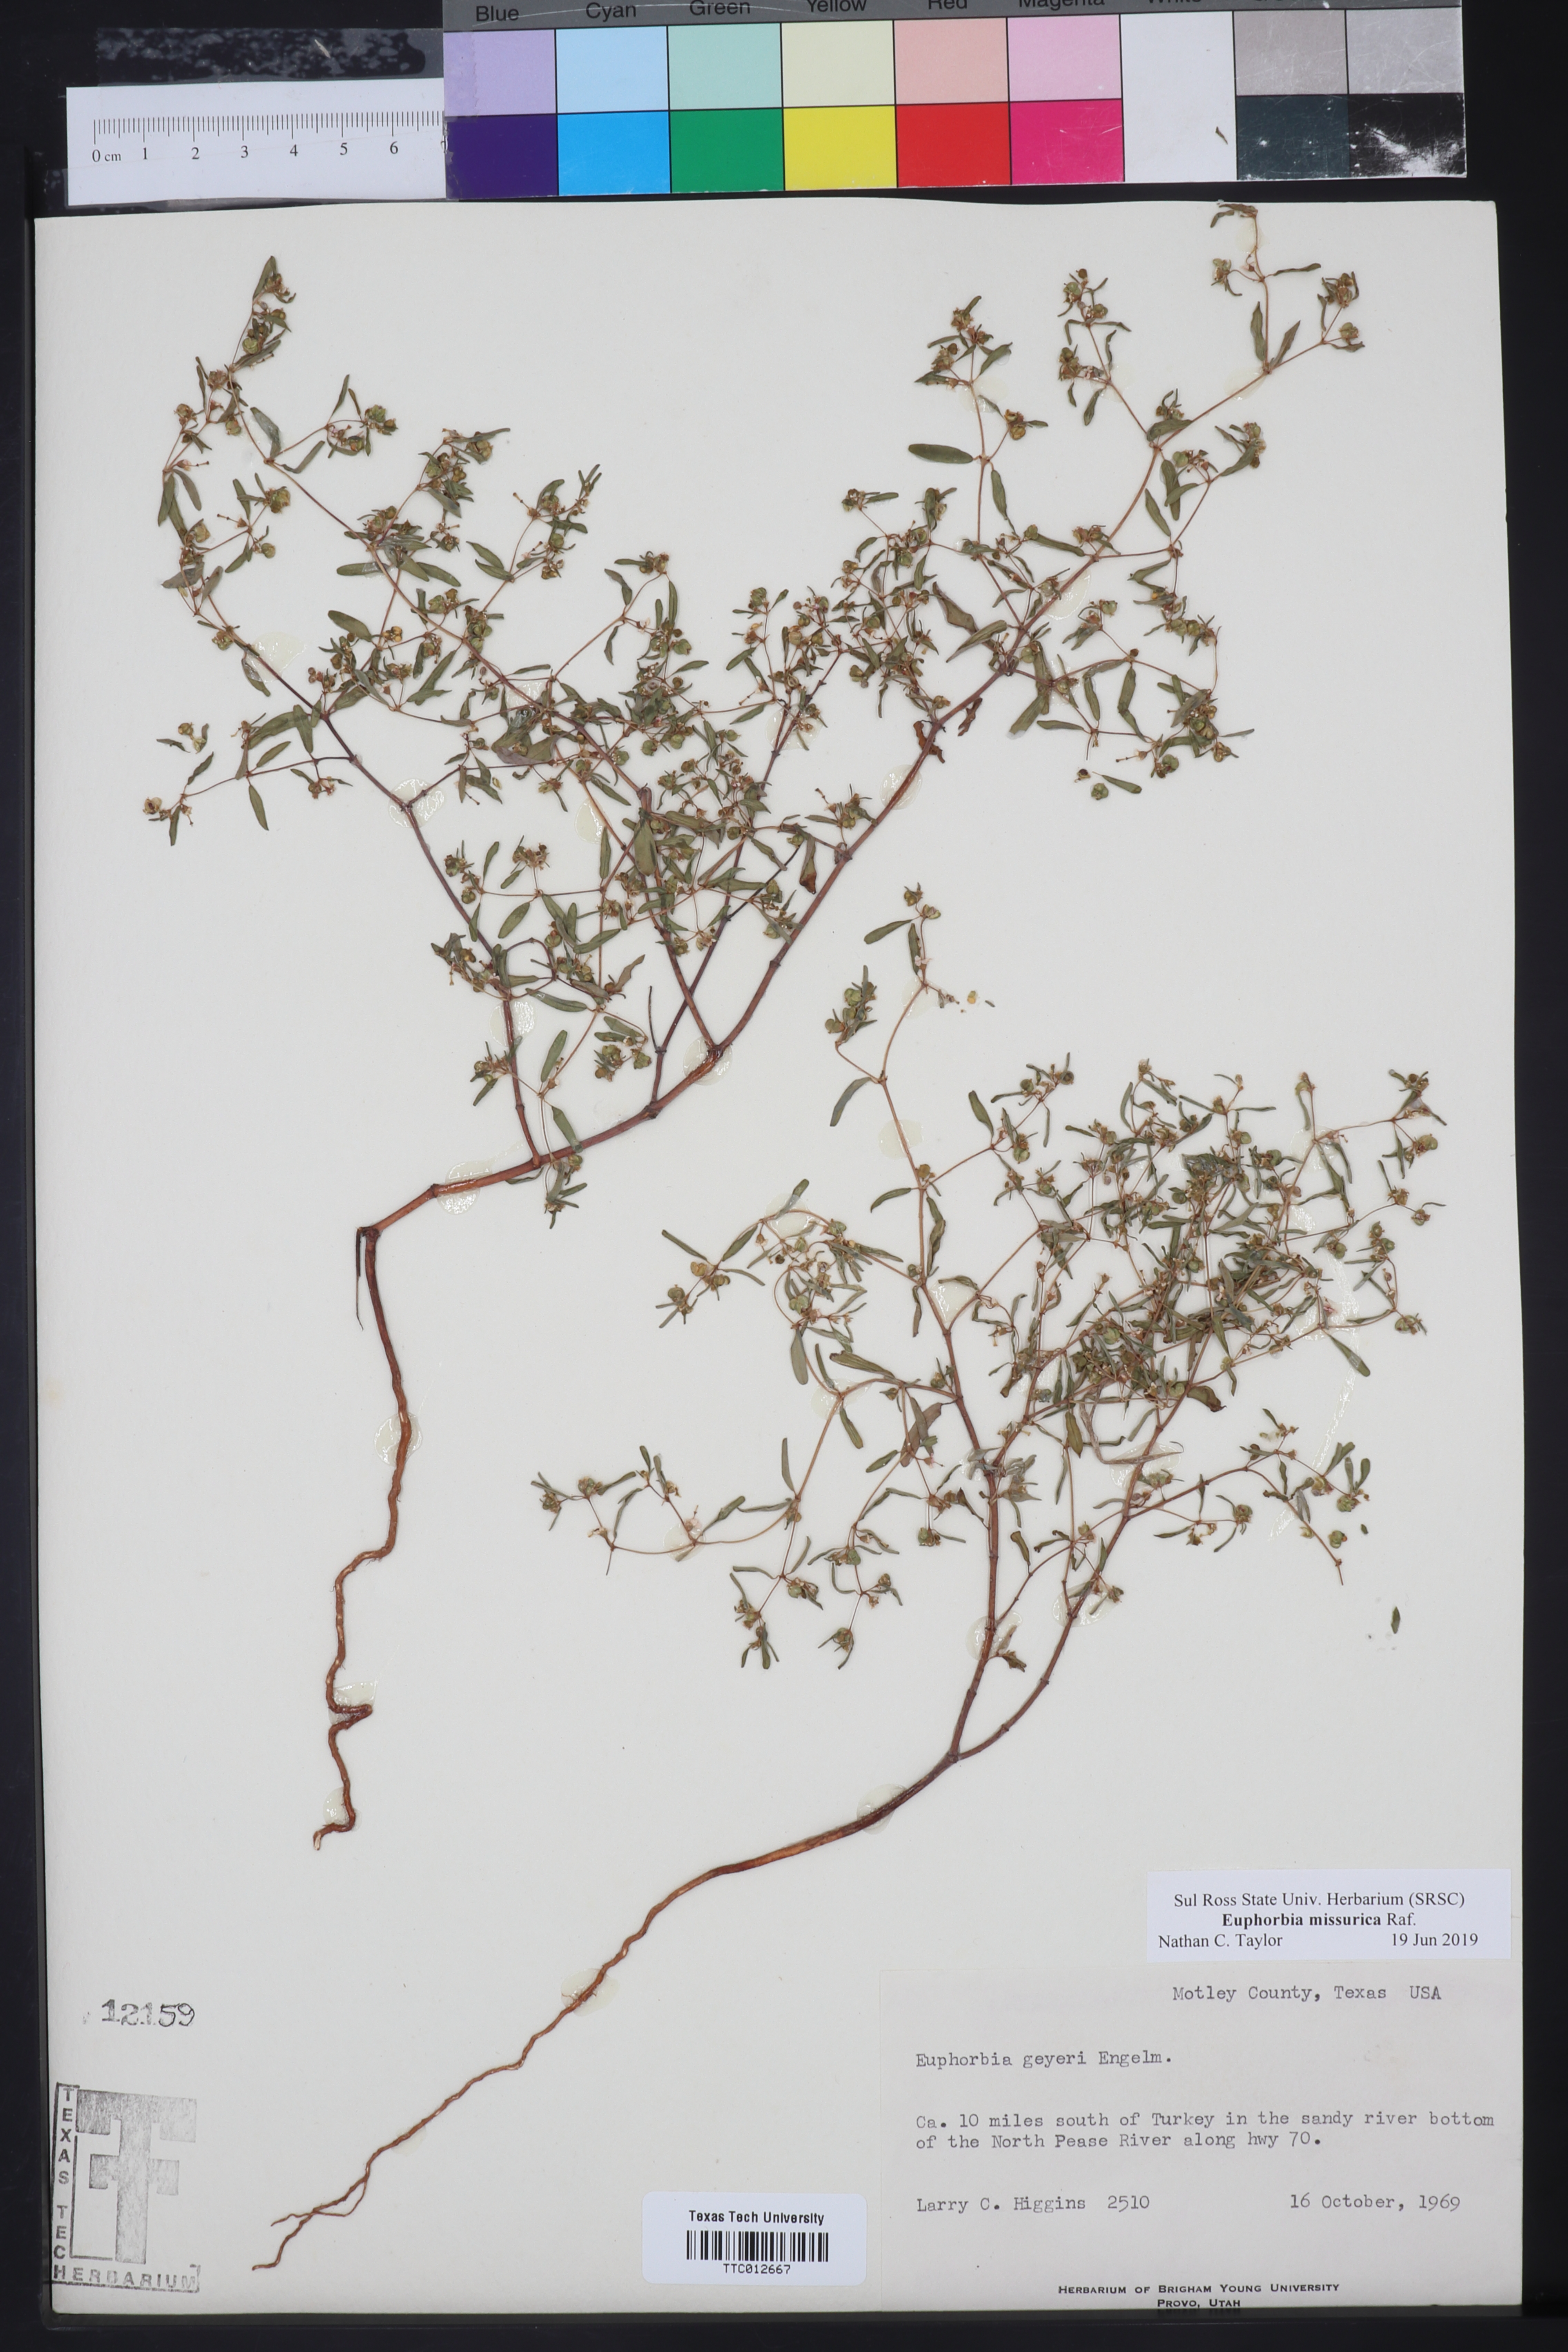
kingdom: Plantae
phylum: Tracheophyta
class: Magnoliopsida
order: Malpighiales
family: Euphorbiaceae
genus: Euphorbia
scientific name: Euphorbia missurica
